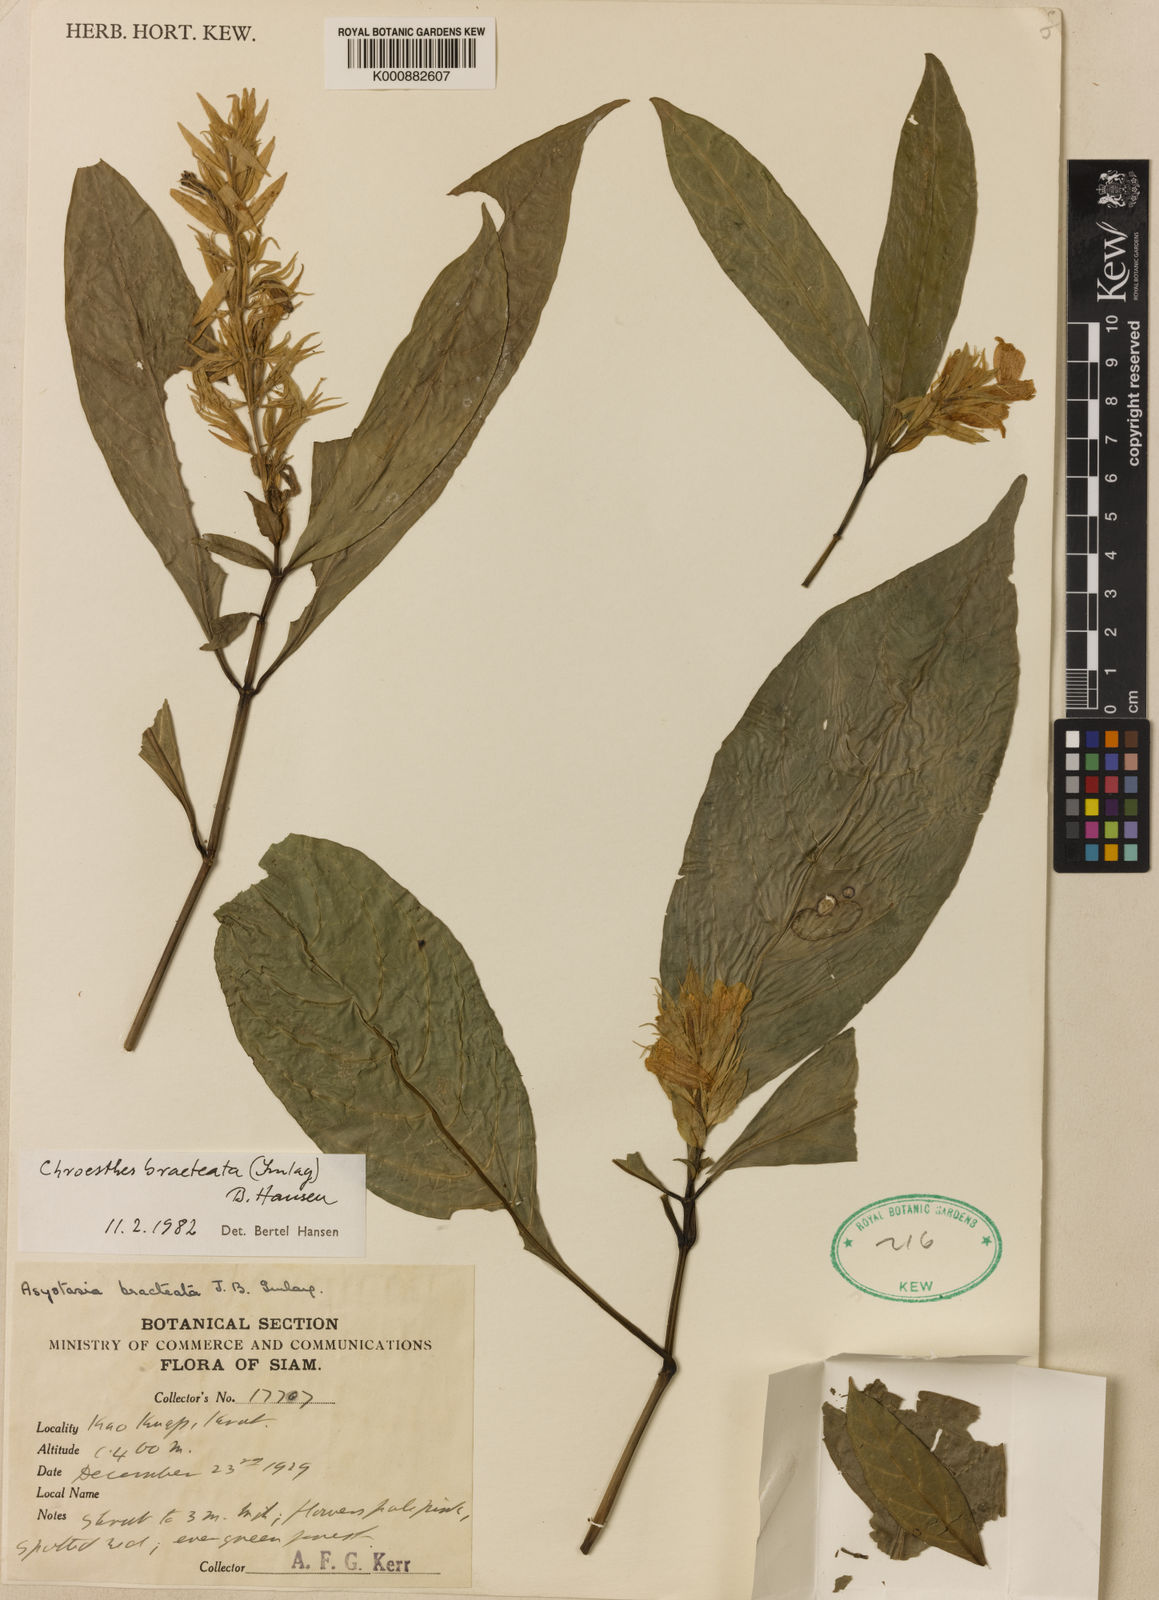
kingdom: Plantae
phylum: Tracheophyta
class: Magnoliopsida
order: Lamiales
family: Acanthaceae
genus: Chroesthes
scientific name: Chroesthes bracteata
